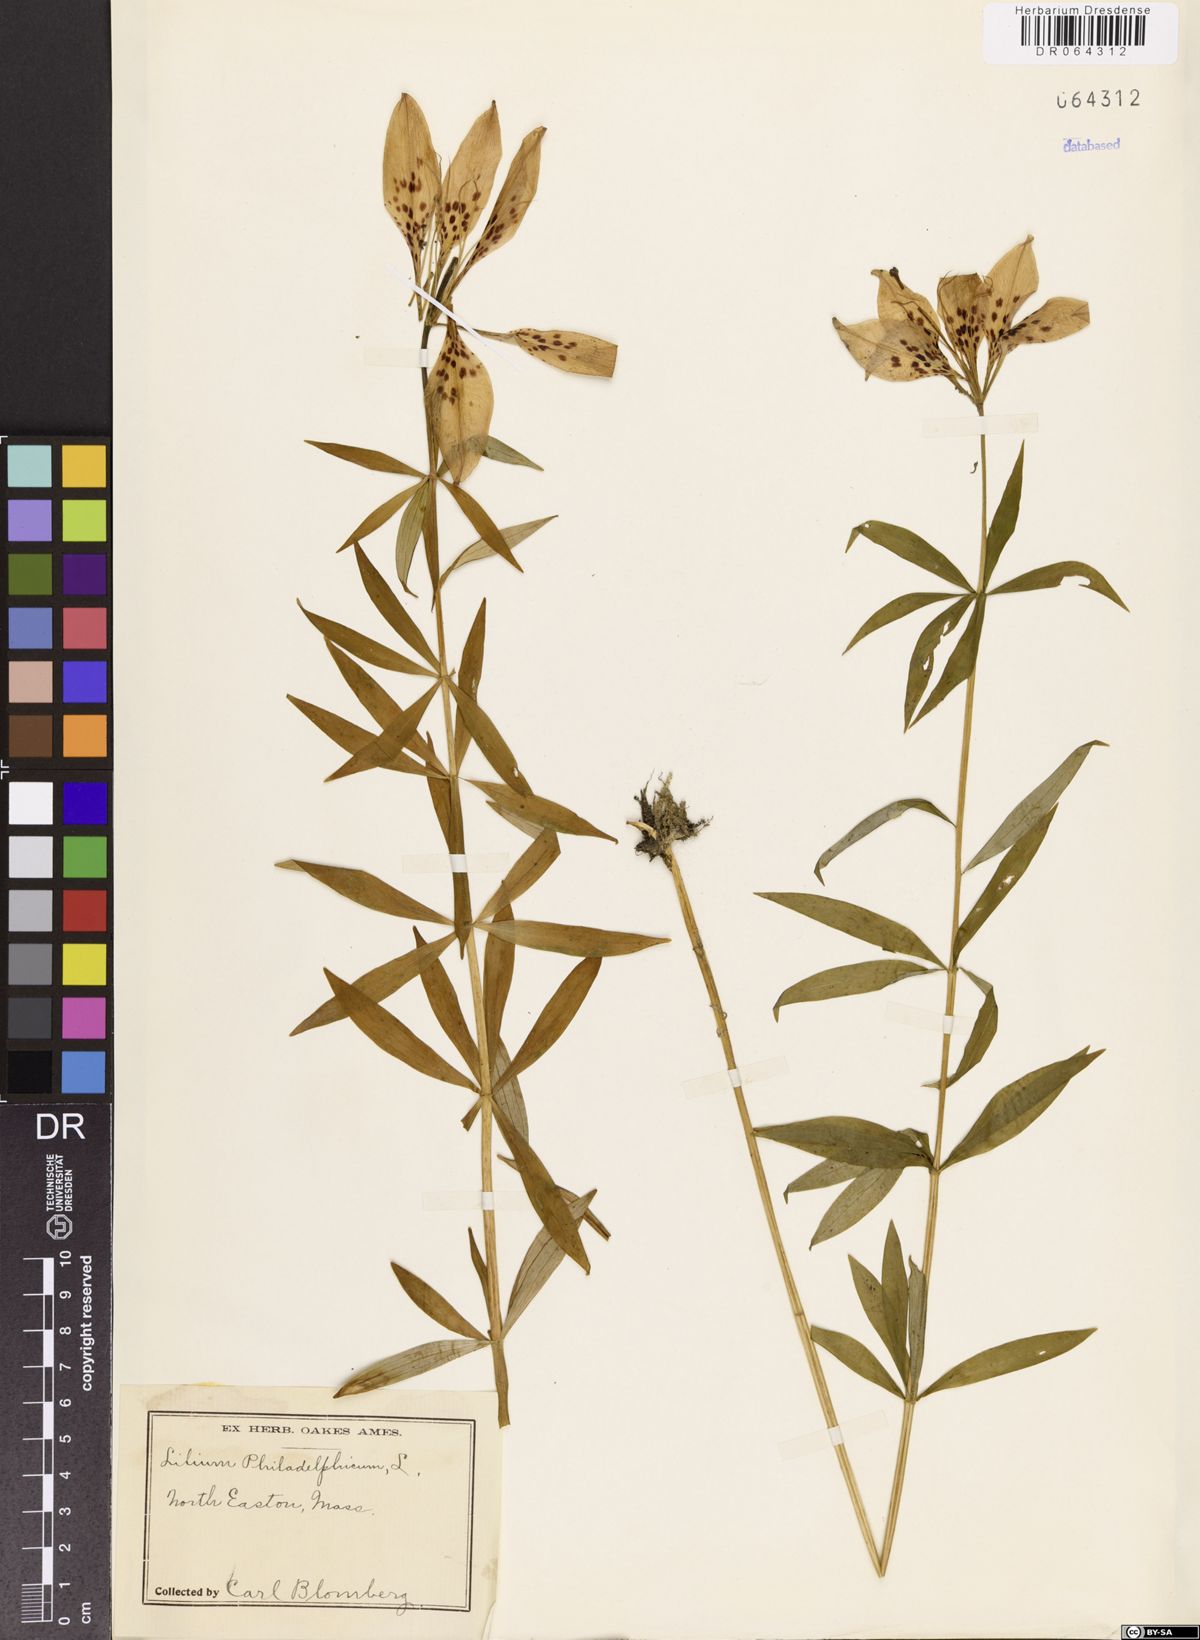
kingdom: Plantae
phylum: Tracheophyta
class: Liliopsida
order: Liliales
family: Liliaceae
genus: Lilium
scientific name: Lilium philadelphicum
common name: Red lily
